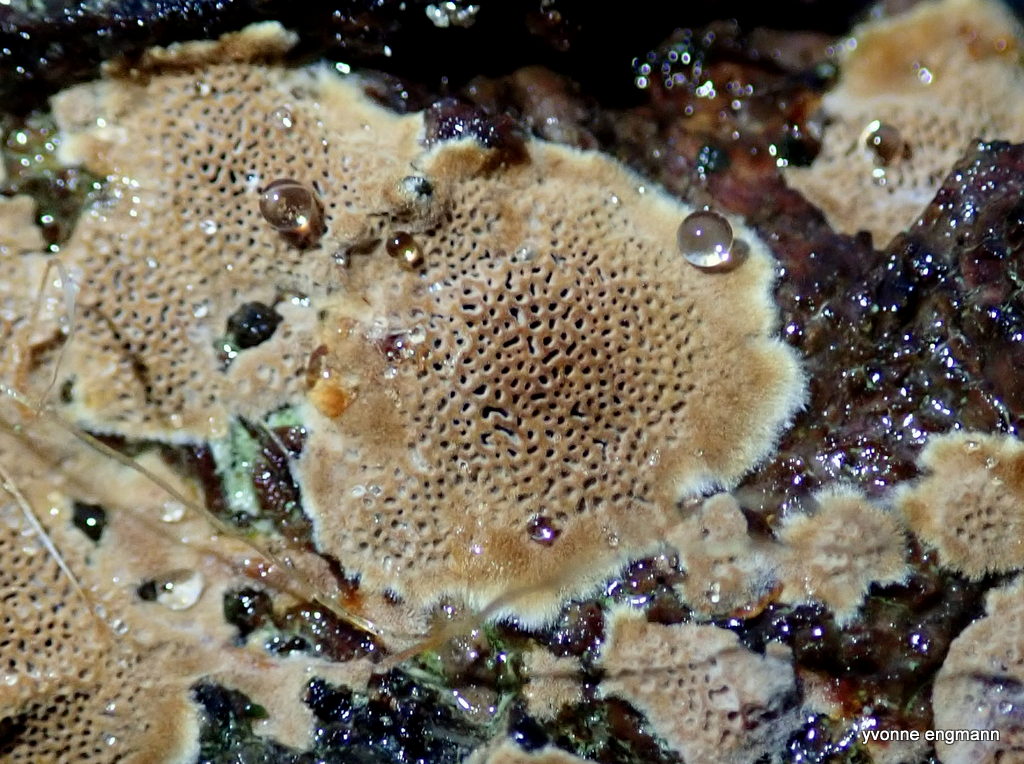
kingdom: Fungi
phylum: Basidiomycota
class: Agaricomycetes
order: Hymenochaetales
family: Hymenochaetaceae
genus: Fuscoporia
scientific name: Fuscoporia ferrea
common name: skorpe-ildporesvamp
